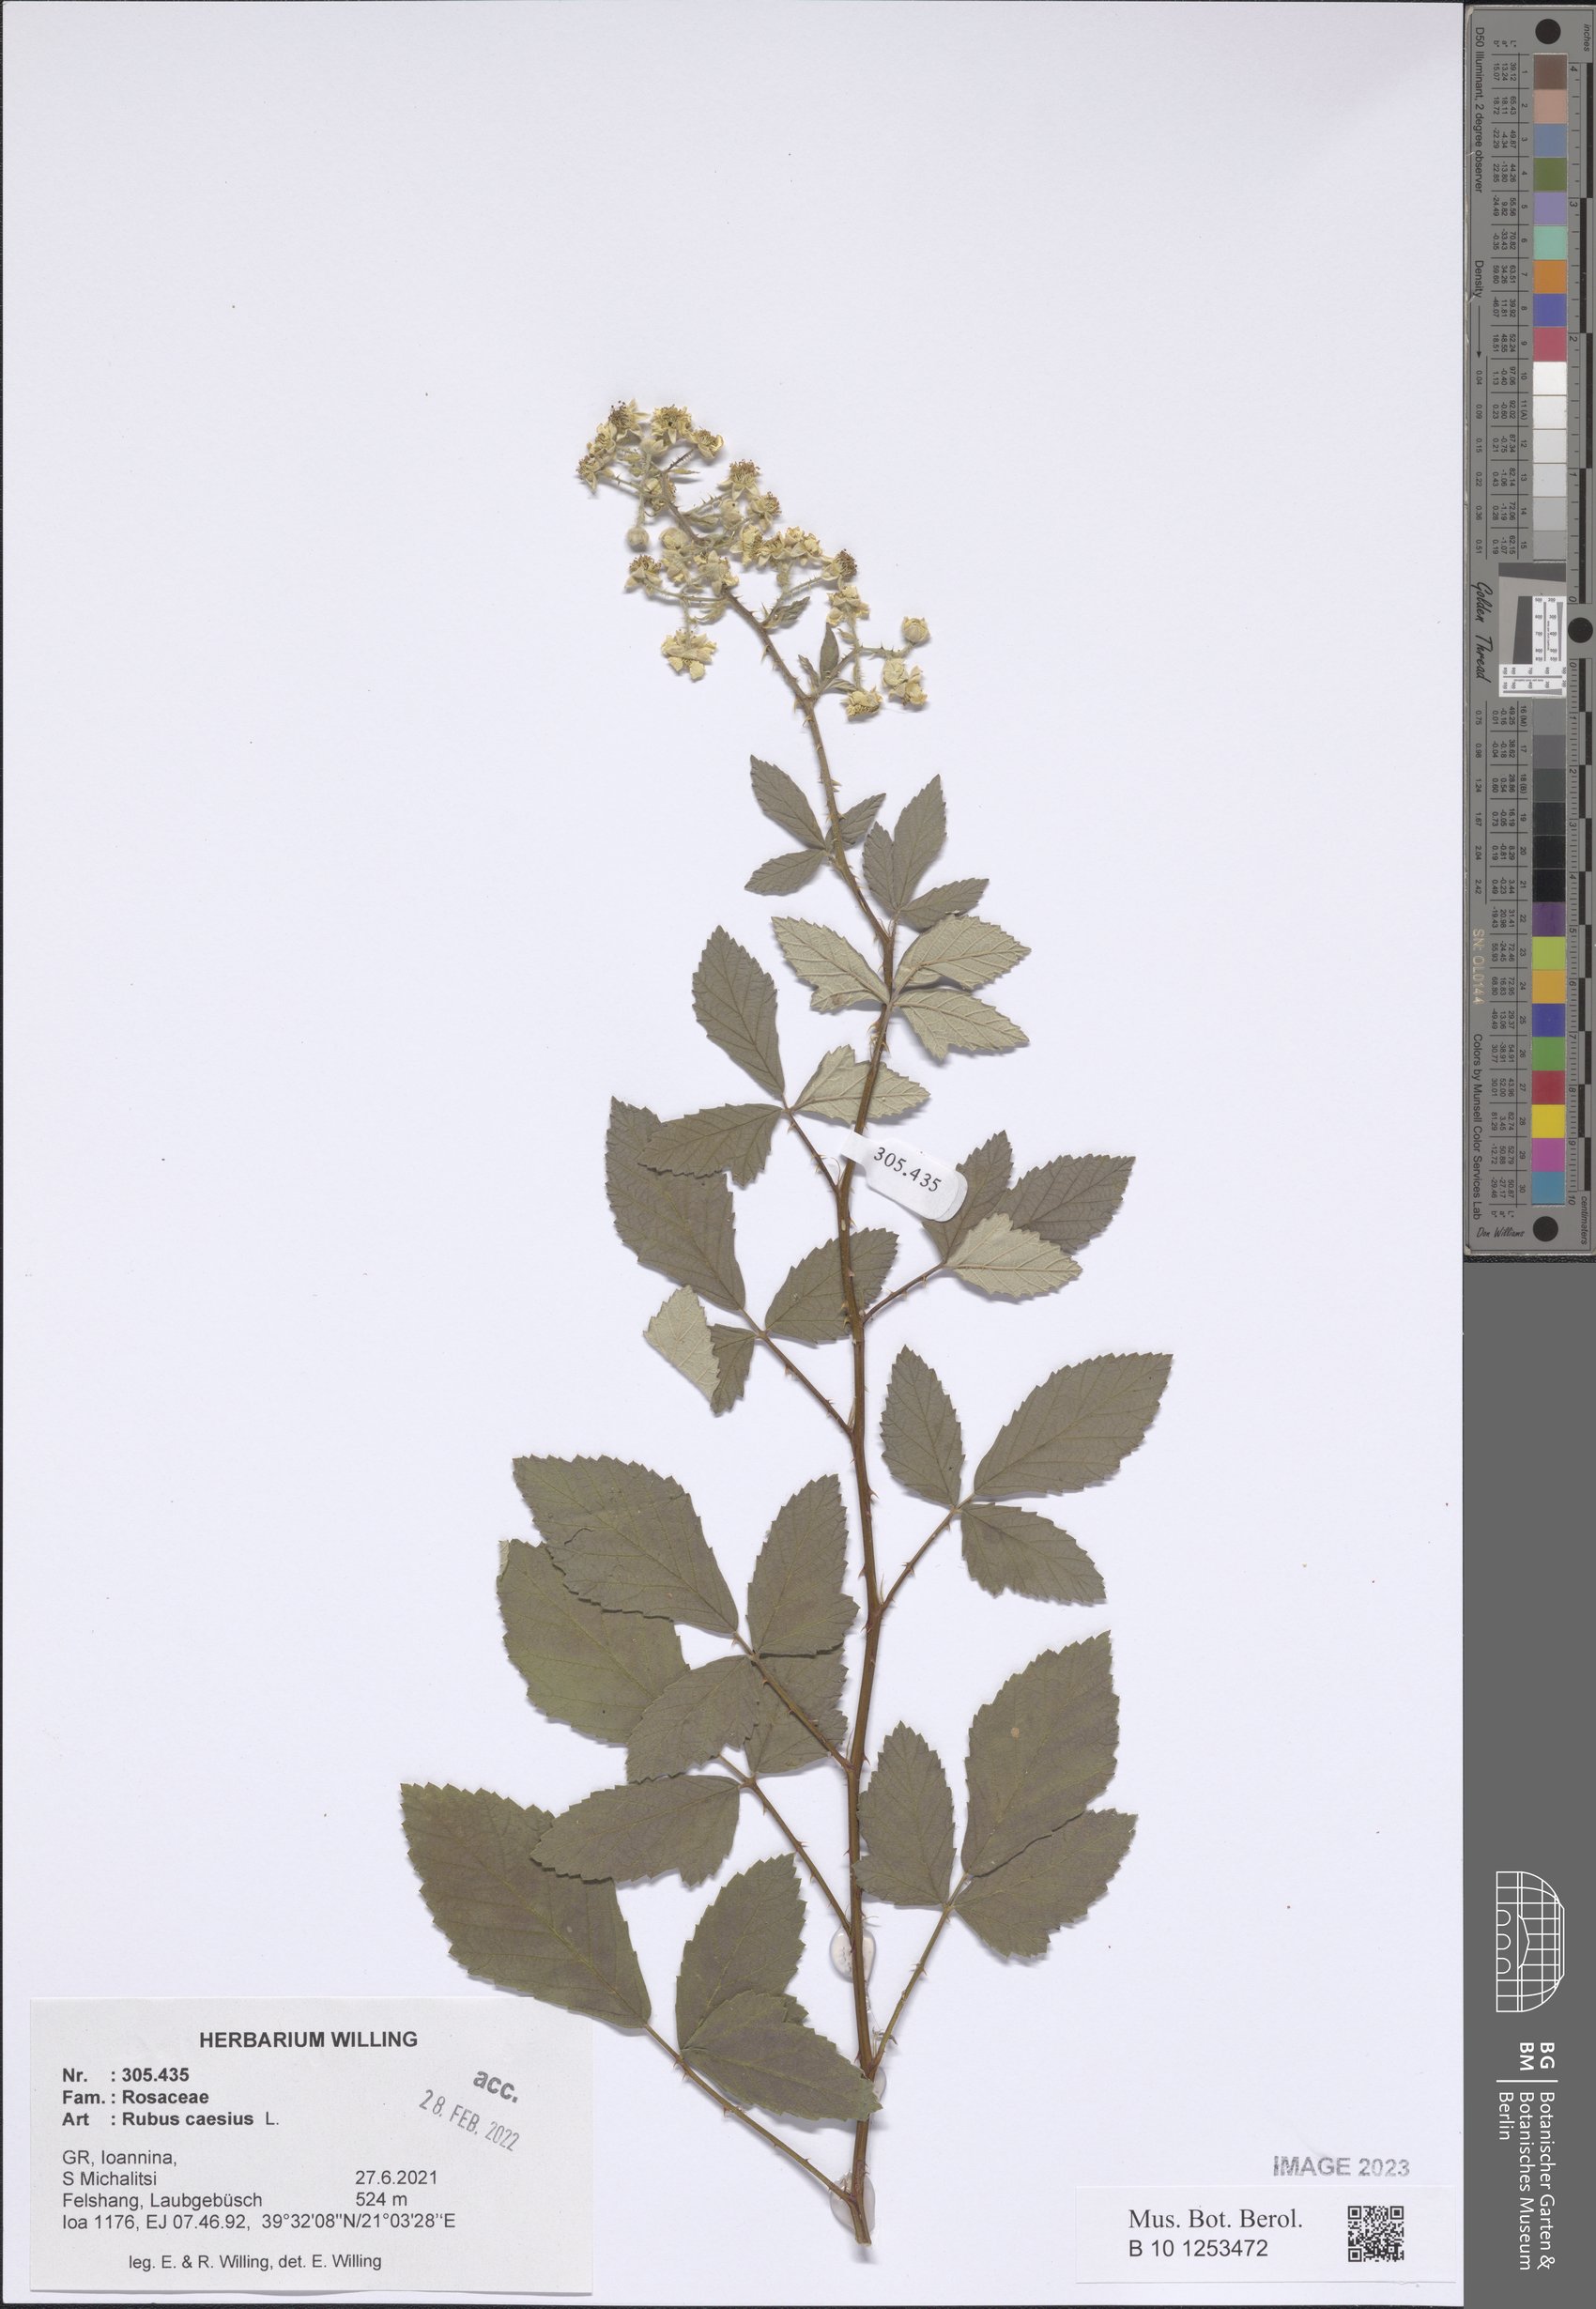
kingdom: Plantae
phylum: Tracheophyta
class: Magnoliopsida
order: Rosales
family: Rosaceae
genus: Rubus
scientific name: Rubus caesius
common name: Dewberry
